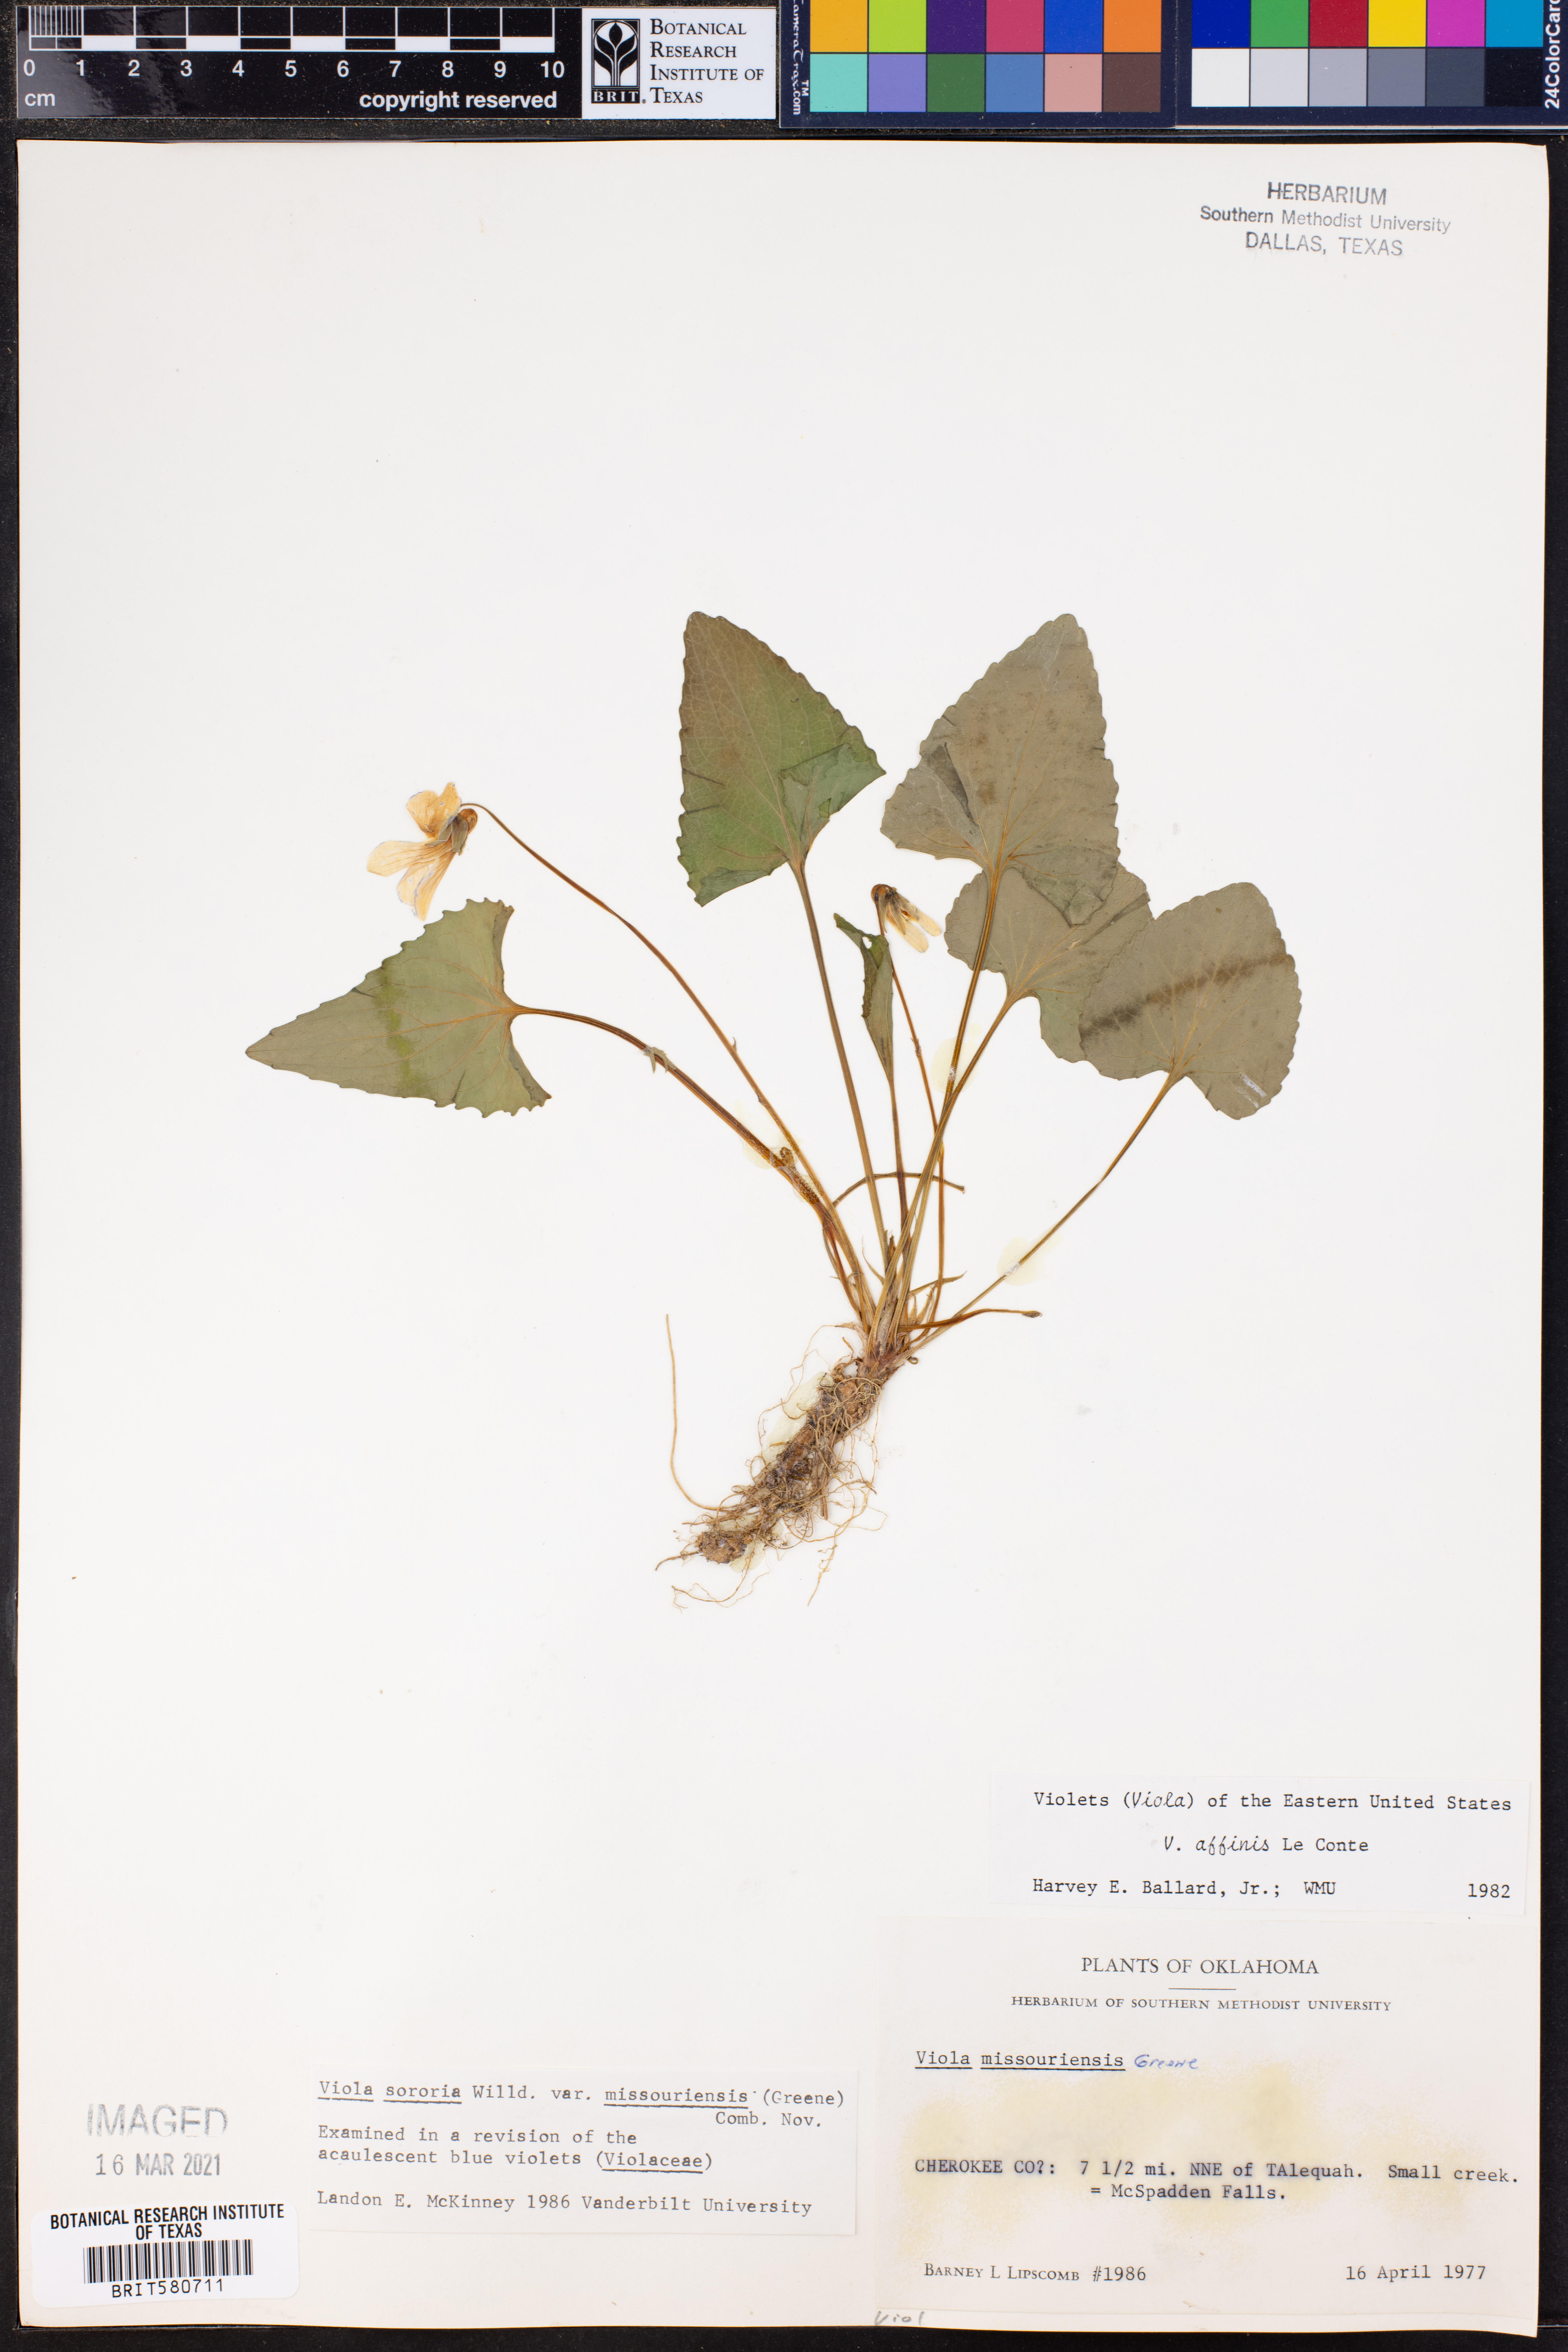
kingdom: Plantae
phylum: Tracheophyta
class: Magnoliopsida
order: Malpighiales
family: Violaceae
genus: Viola
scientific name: Viola missouriensis
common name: Missouri violet
